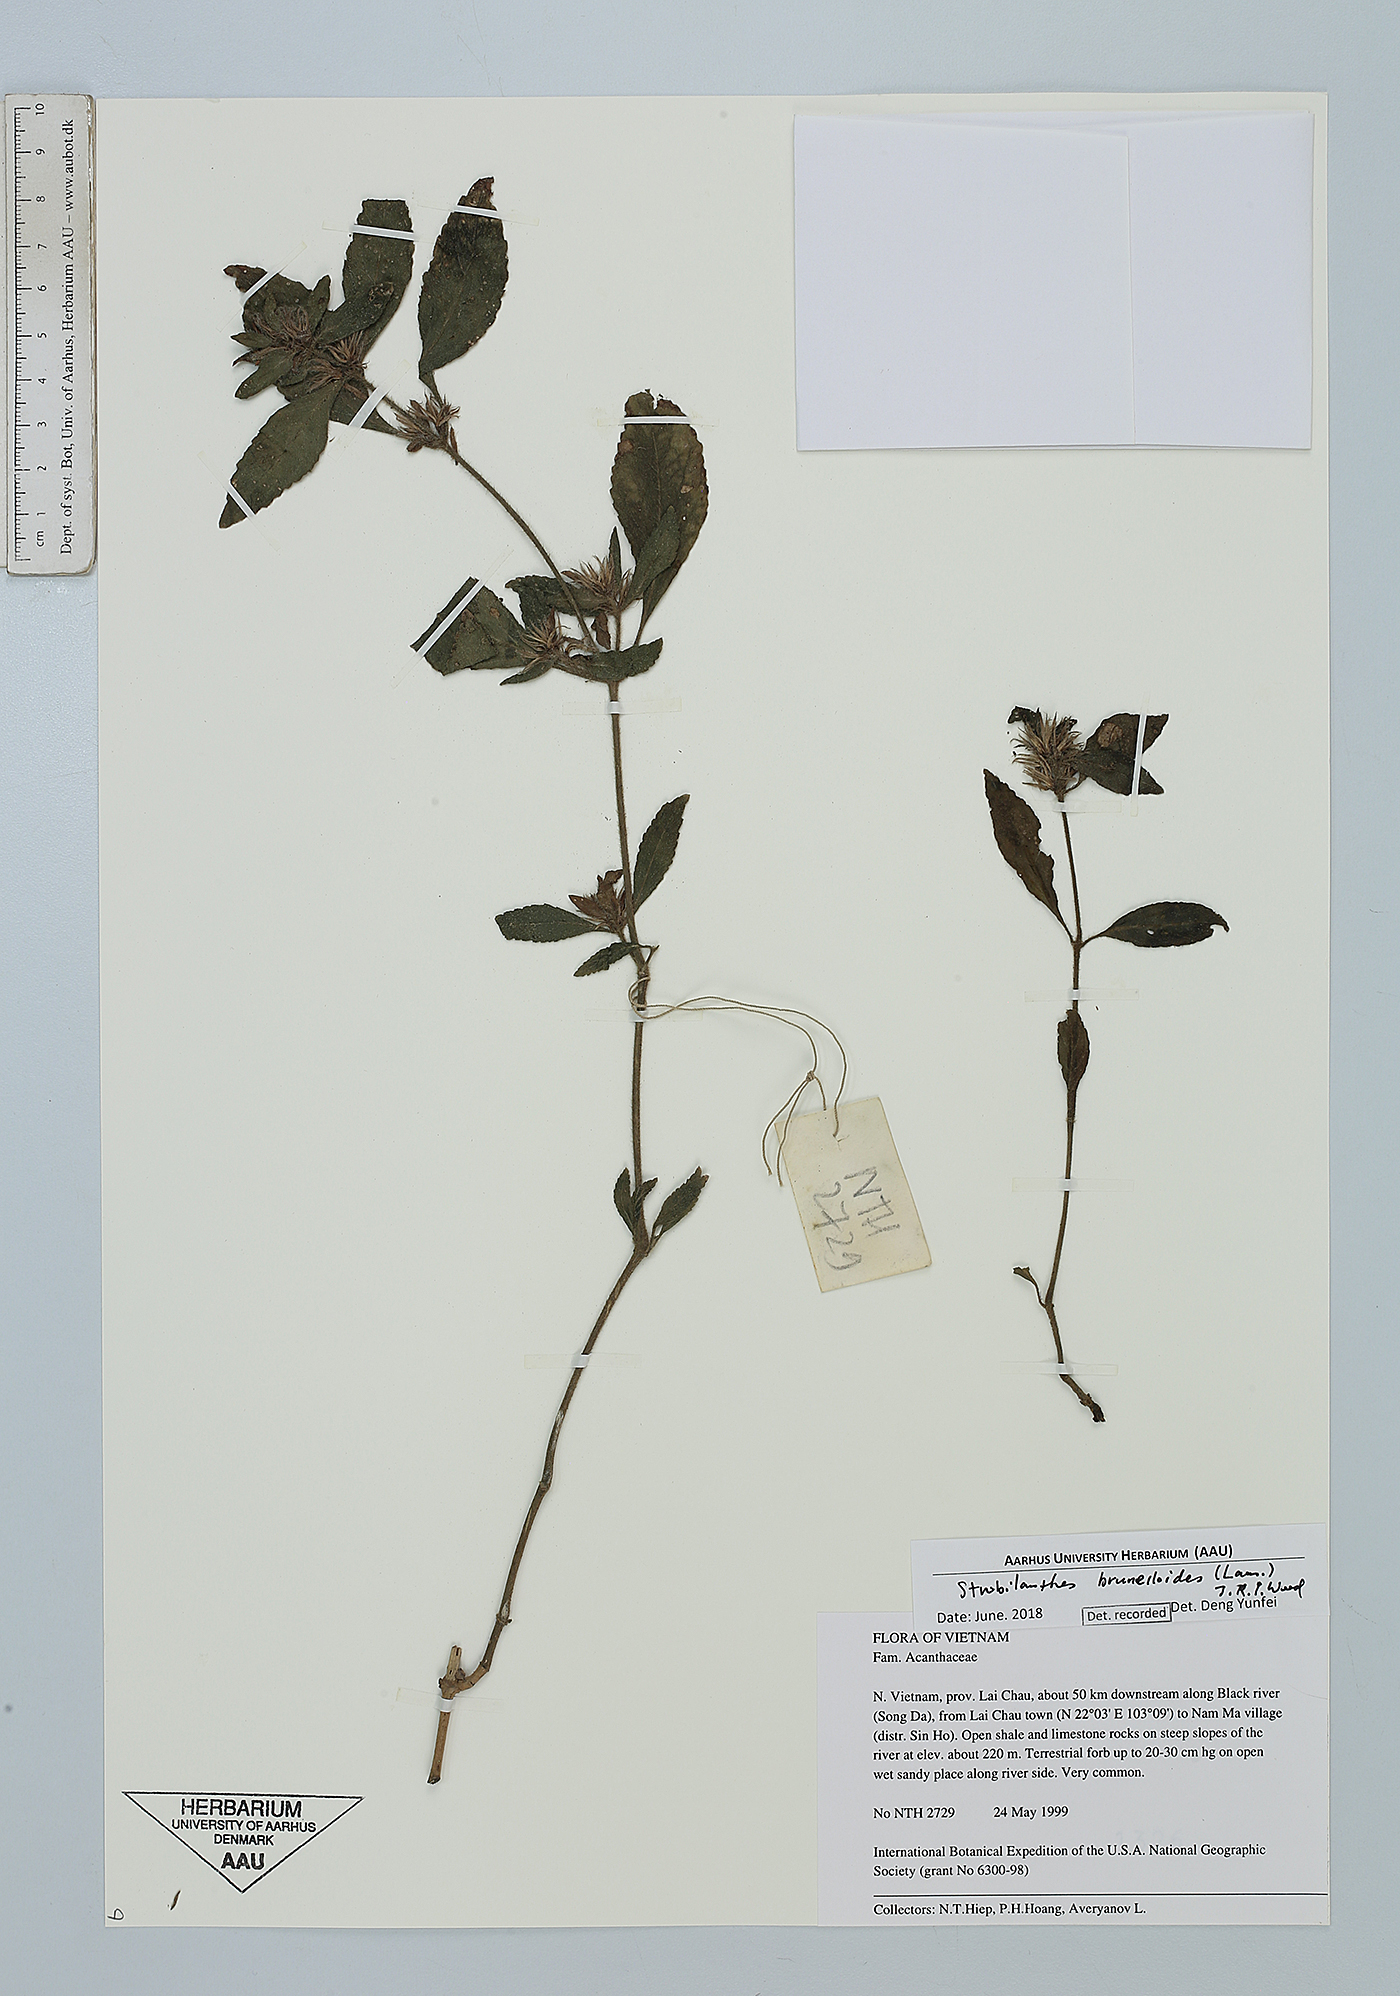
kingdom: Plantae
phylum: Tracheophyta
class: Magnoliopsida
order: Lamiales
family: Acanthaceae
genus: Strobilanthes
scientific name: Strobilanthes brunelloides
